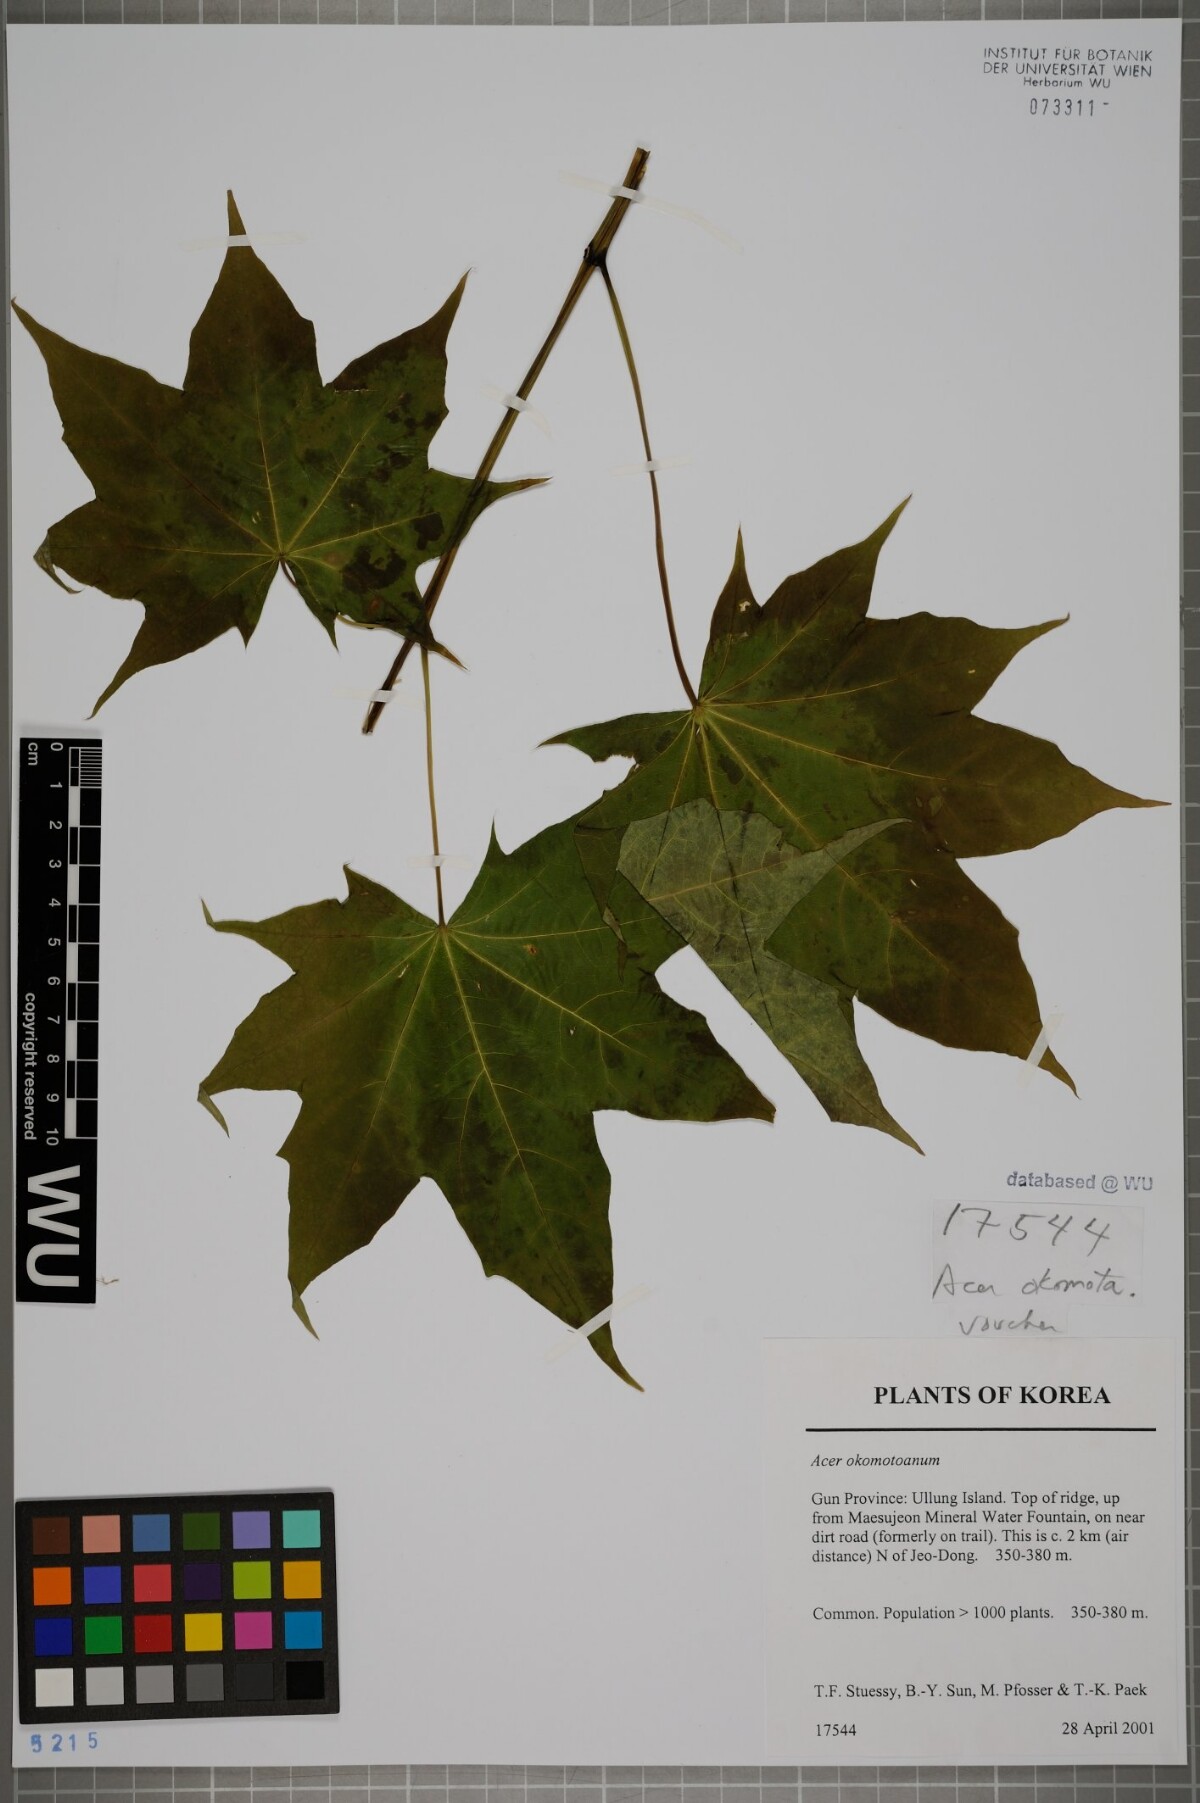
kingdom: Plantae
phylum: Tracheophyta
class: Magnoliopsida
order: Sapindales
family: Sapindaceae
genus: Acer
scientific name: Acer pictum
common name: The painted maple
